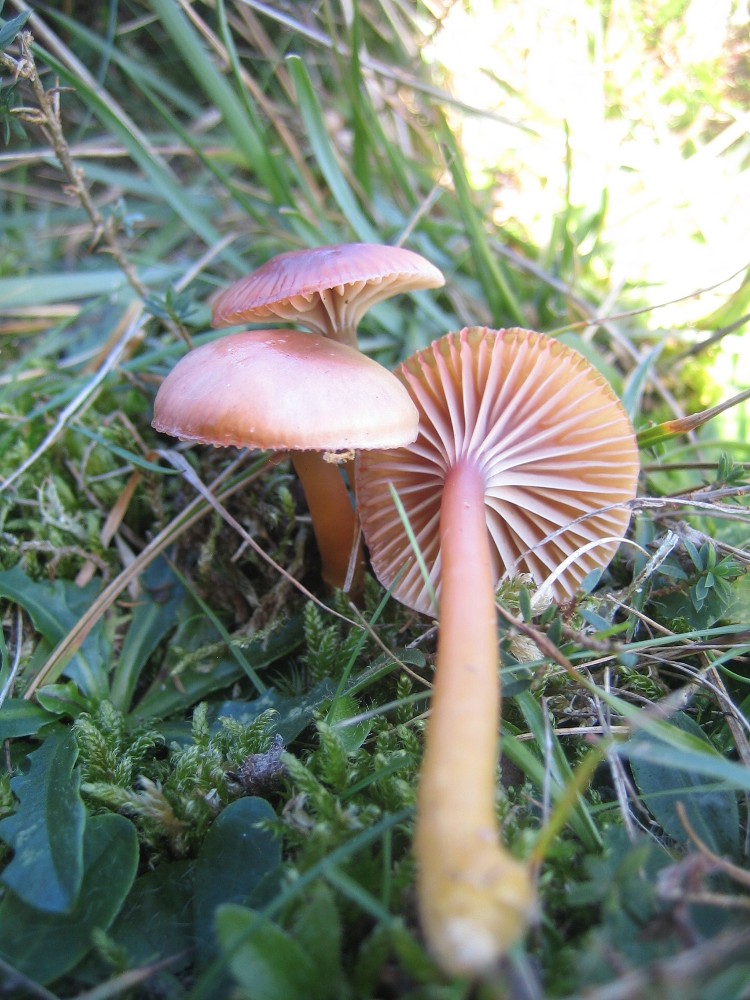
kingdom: Fungi
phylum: Basidiomycota
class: Agaricomycetes
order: Agaricales
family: Hygrophoraceae
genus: Gliophorus
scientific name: Gliophorus laetus
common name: brusk-vokshat
